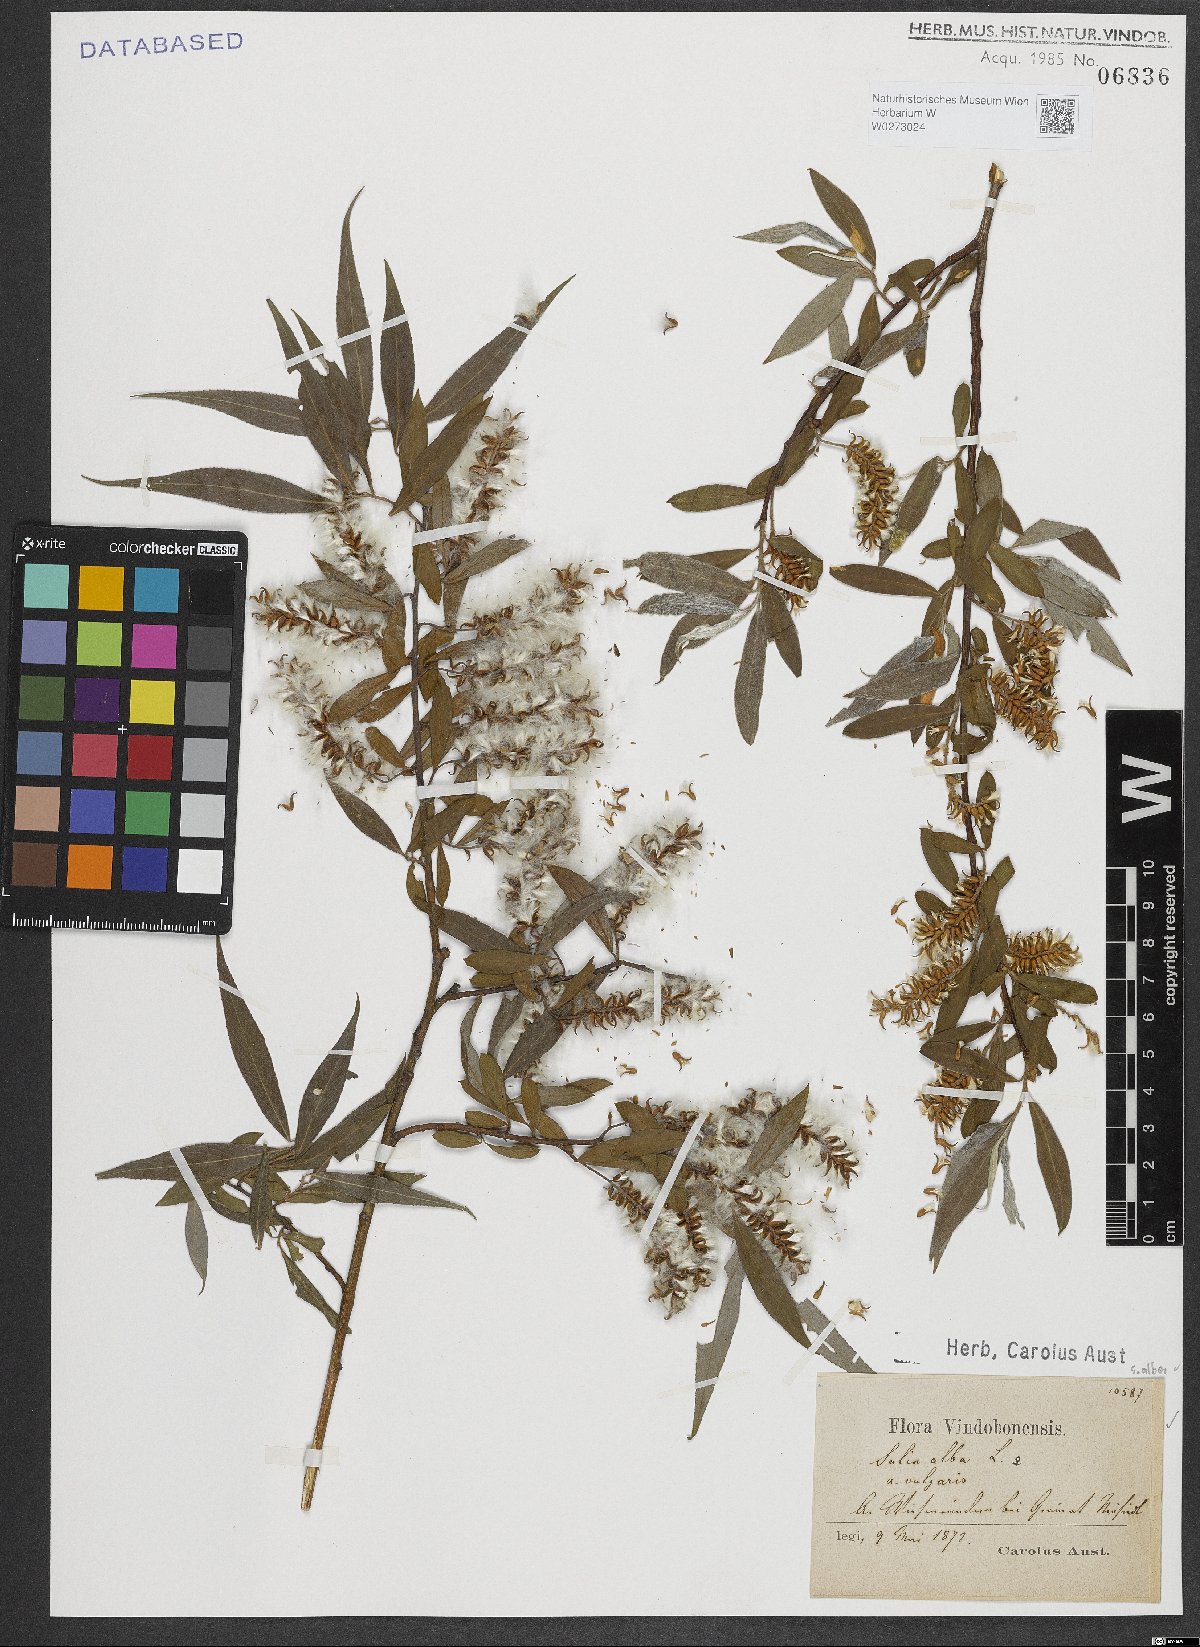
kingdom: Plantae
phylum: Tracheophyta
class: Magnoliopsida
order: Malpighiales
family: Salicaceae
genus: Salix
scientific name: Salix alba
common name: White willow
